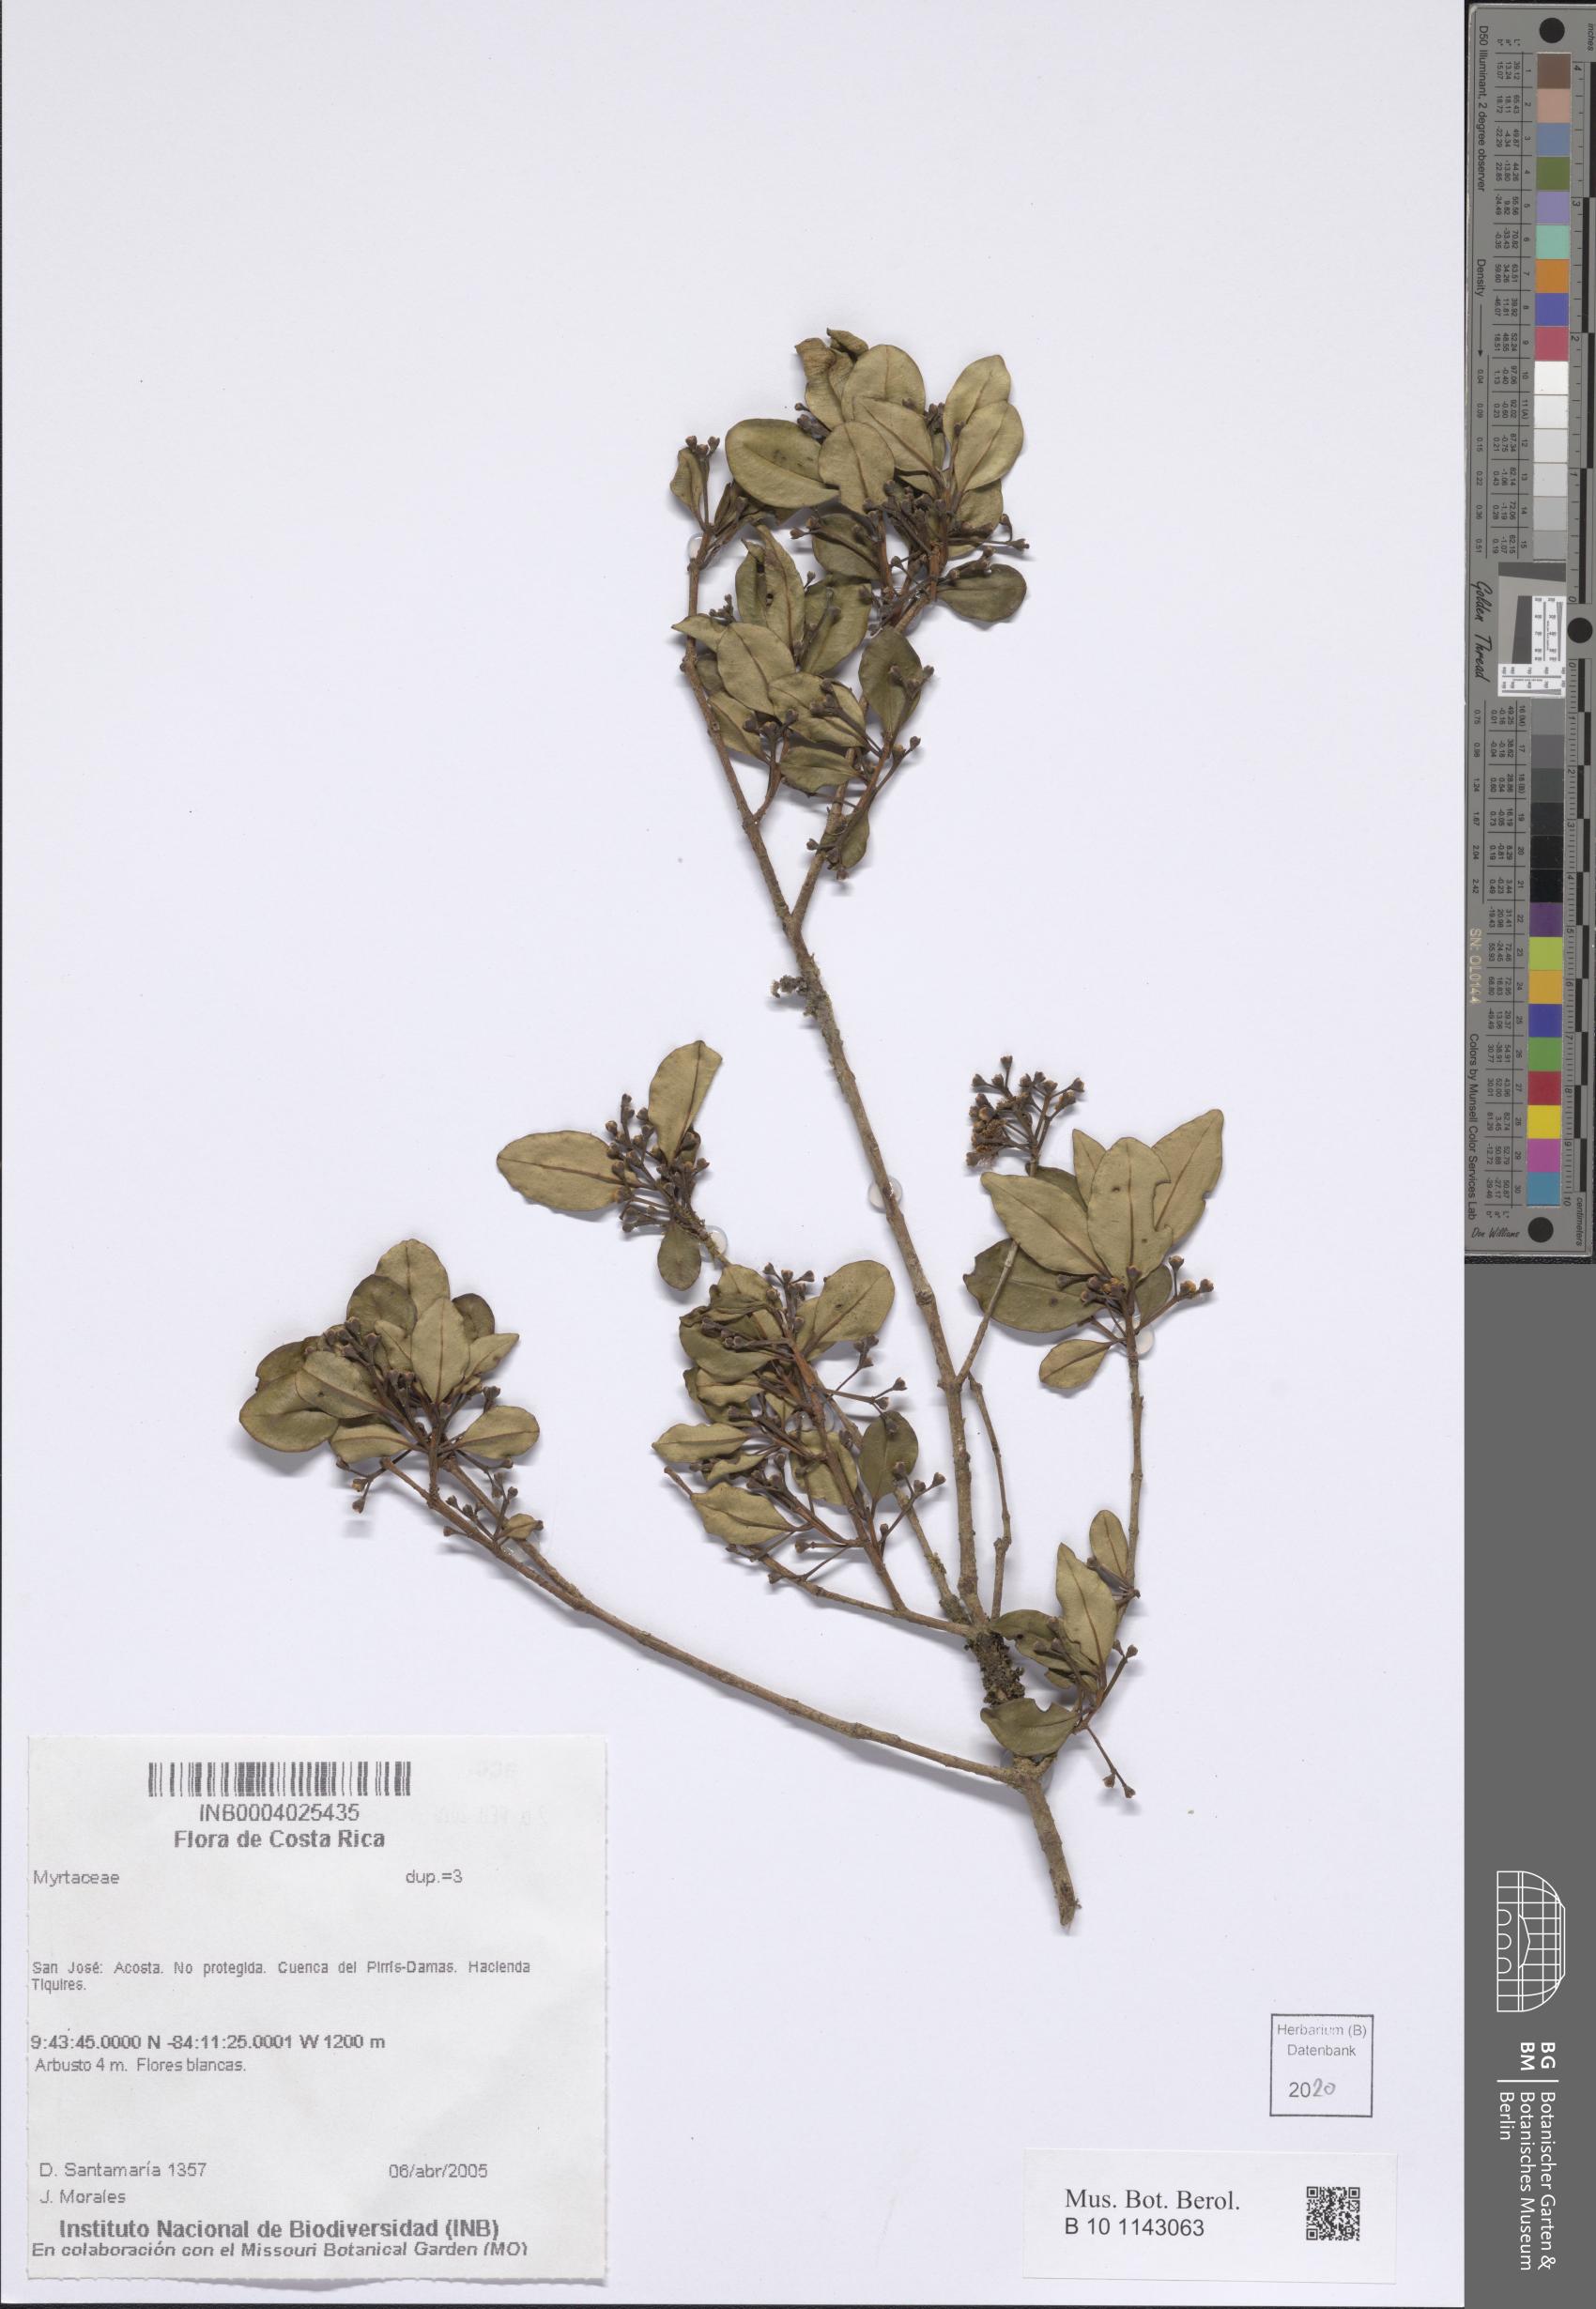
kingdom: Plantae
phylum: Tracheophyta
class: Magnoliopsida
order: Myrtales
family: Myrtaceae
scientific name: Myrtaceae
